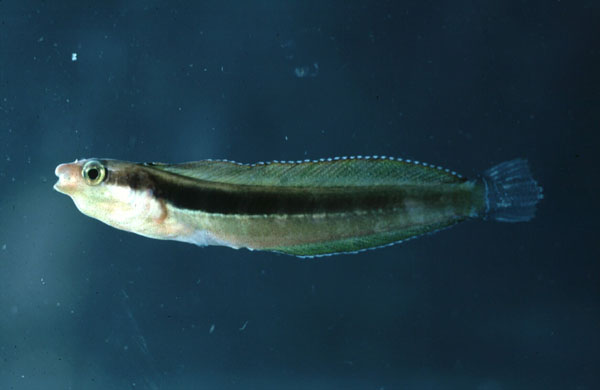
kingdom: Animalia
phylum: Chordata
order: Perciformes
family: Blenniidae
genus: Aspidontus
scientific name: Aspidontus dussumieri
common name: Lance blenny
